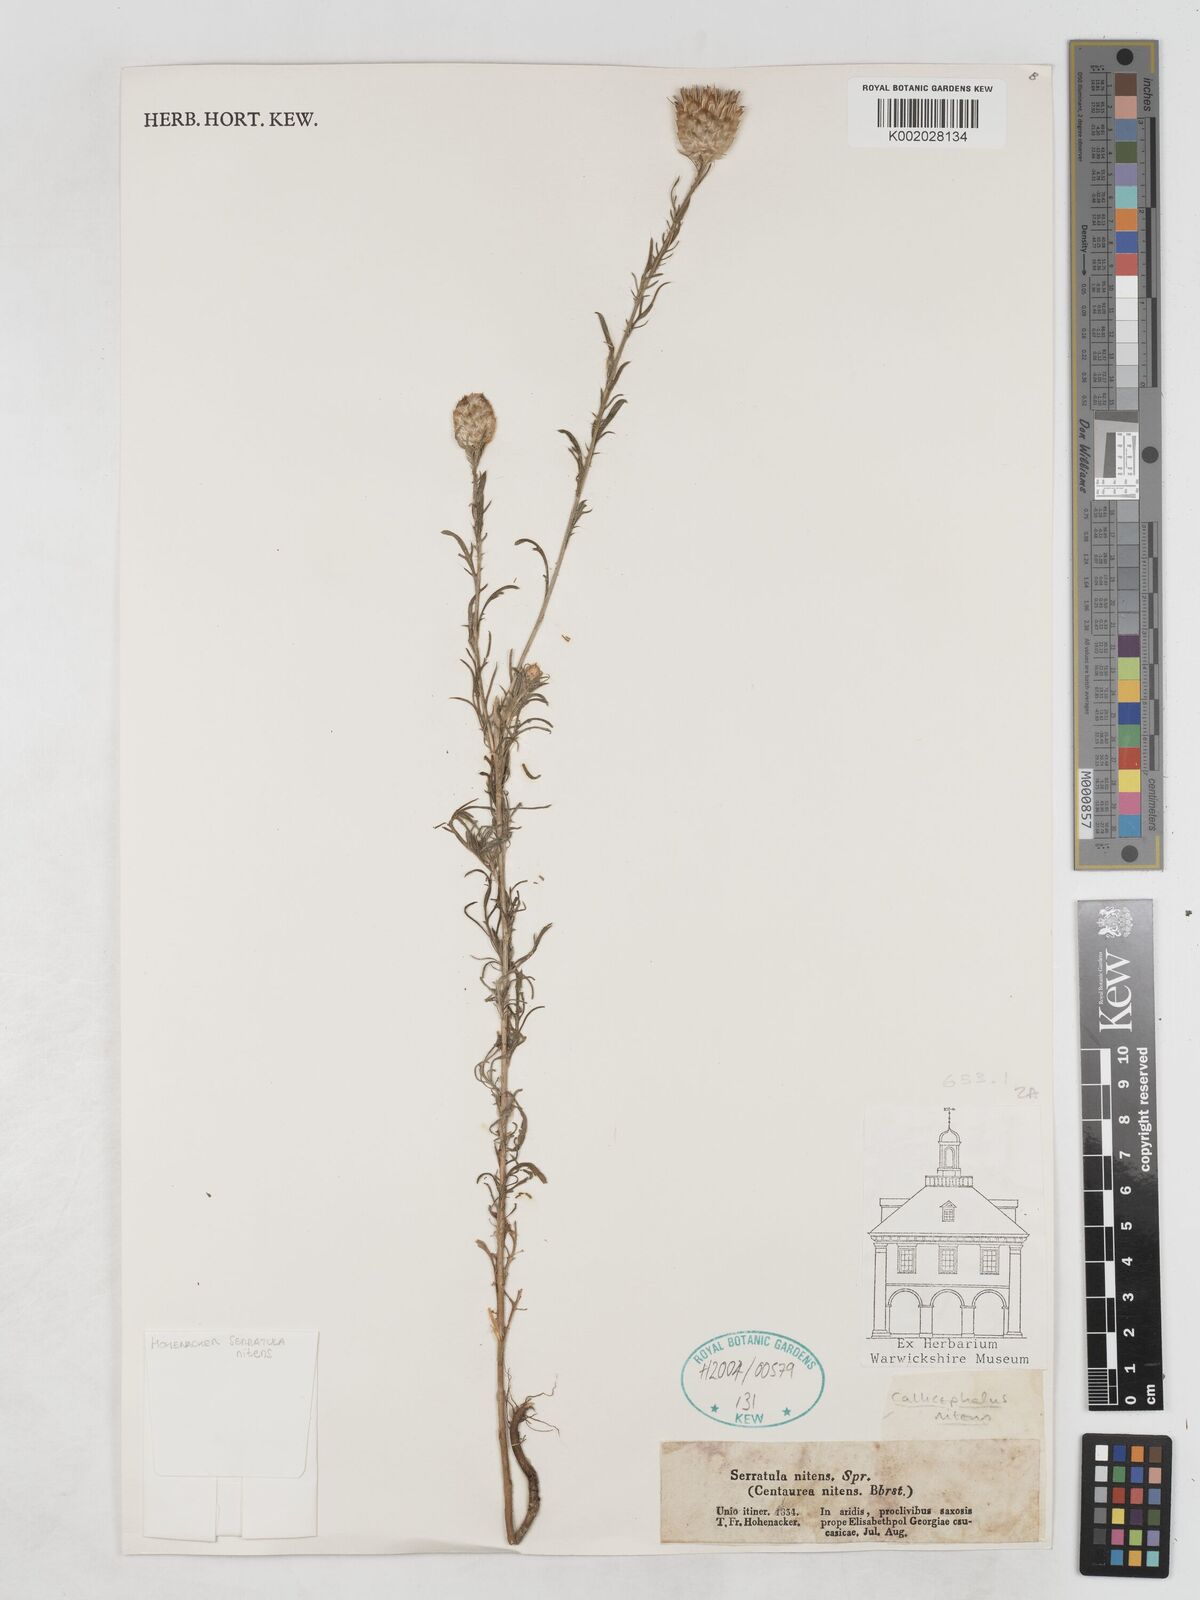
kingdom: Plantae
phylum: Tracheophyta
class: Magnoliopsida
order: Asterales
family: Asteraceae
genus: Callicephalus
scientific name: Callicephalus nitens
